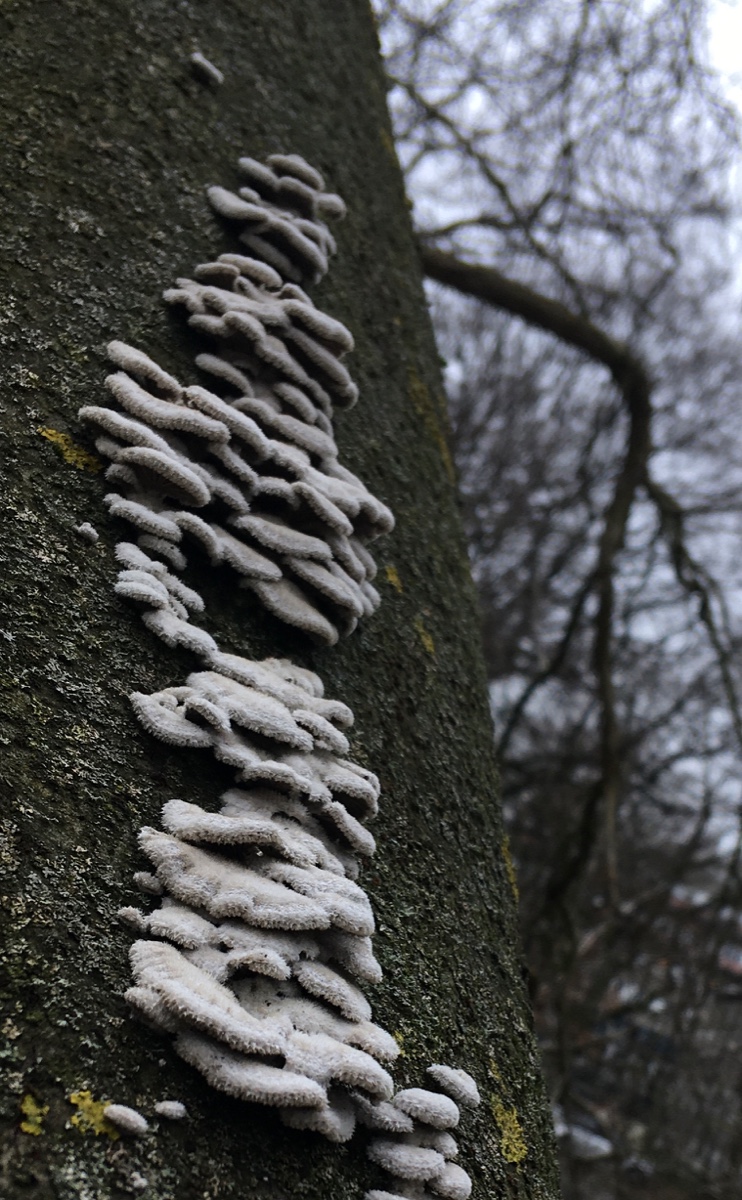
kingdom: Fungi
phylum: Basidiomycota
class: Agaricomycetes
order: Agaricales
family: Schizophyllaceae
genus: Schizophyllum
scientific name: Schizophyllum commune
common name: kløvblad
